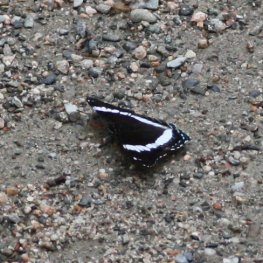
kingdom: Animalia
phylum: Arthropoda
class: Insecta
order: Lepidoptera
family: Nymphalidae
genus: Limenitis
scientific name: Limenitis arthemis
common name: Red-spotted Admiral
